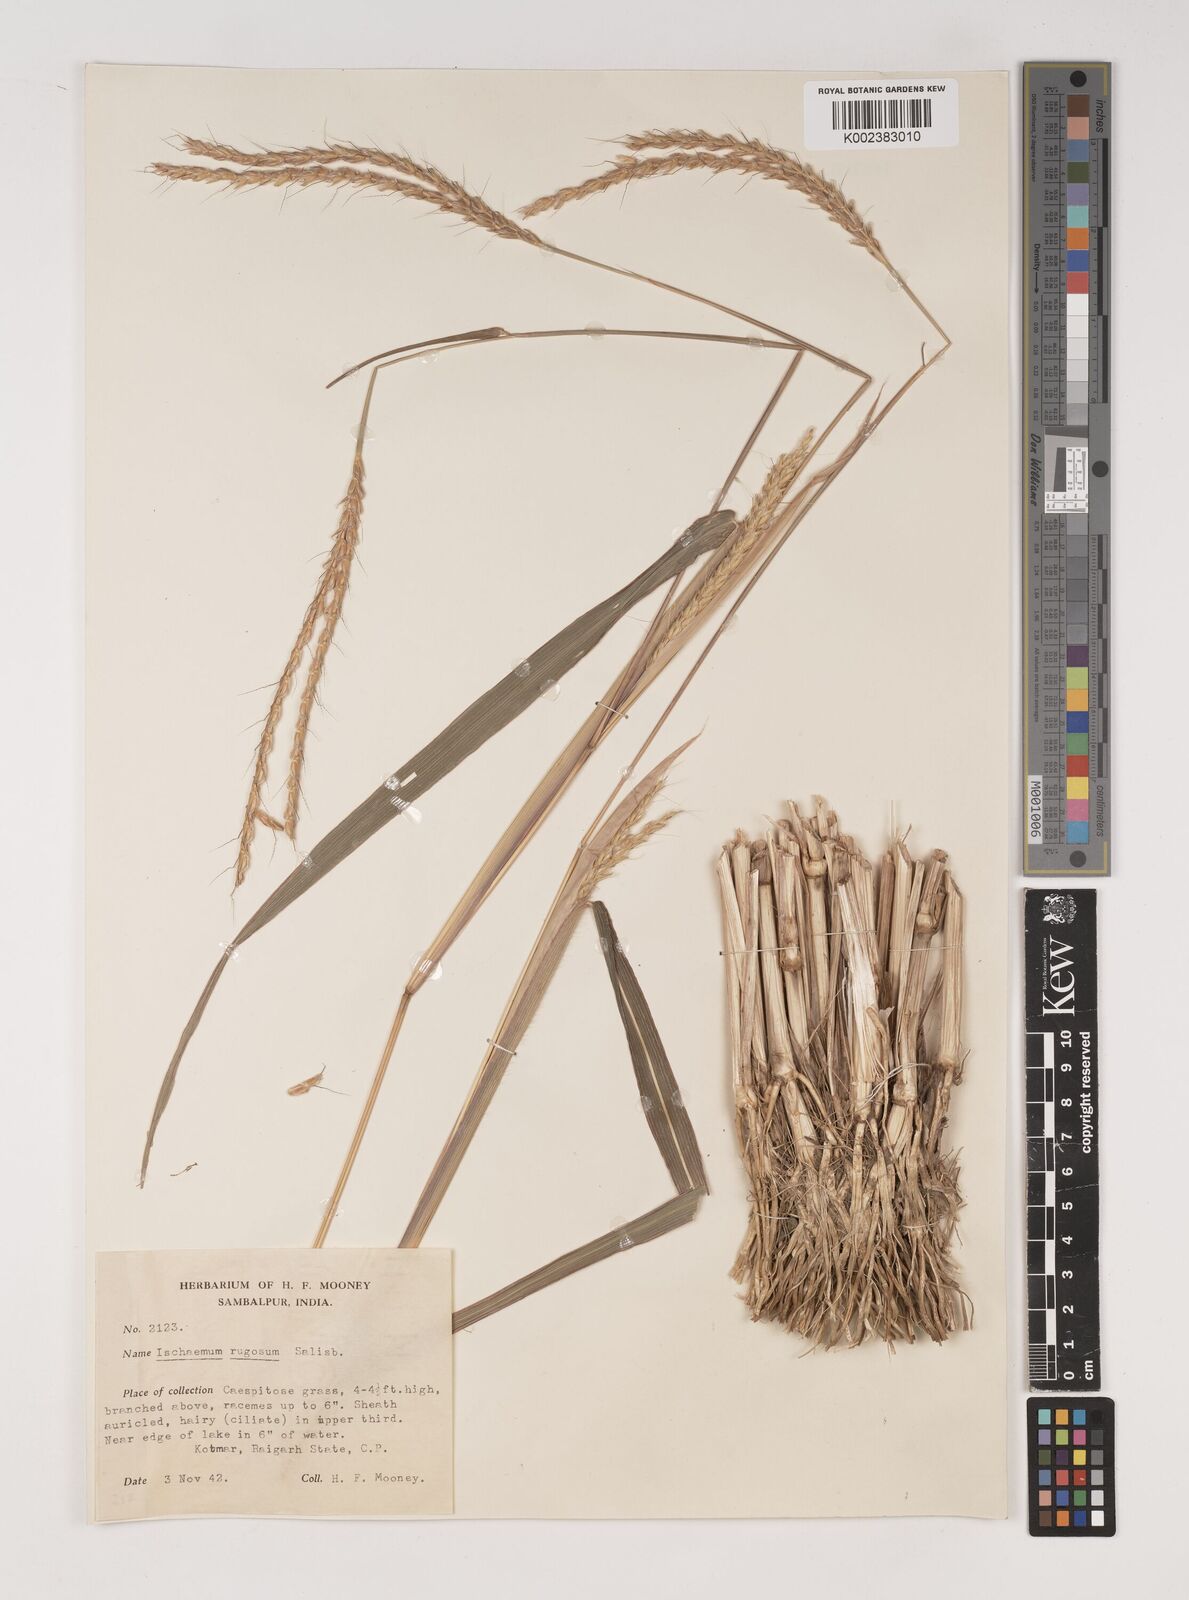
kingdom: Plantae
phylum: Tracheophyta
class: Liliopsida
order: Poales
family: Poaceae
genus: Ischaemum
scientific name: Ischaemum rugosum
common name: Saramatta grass
